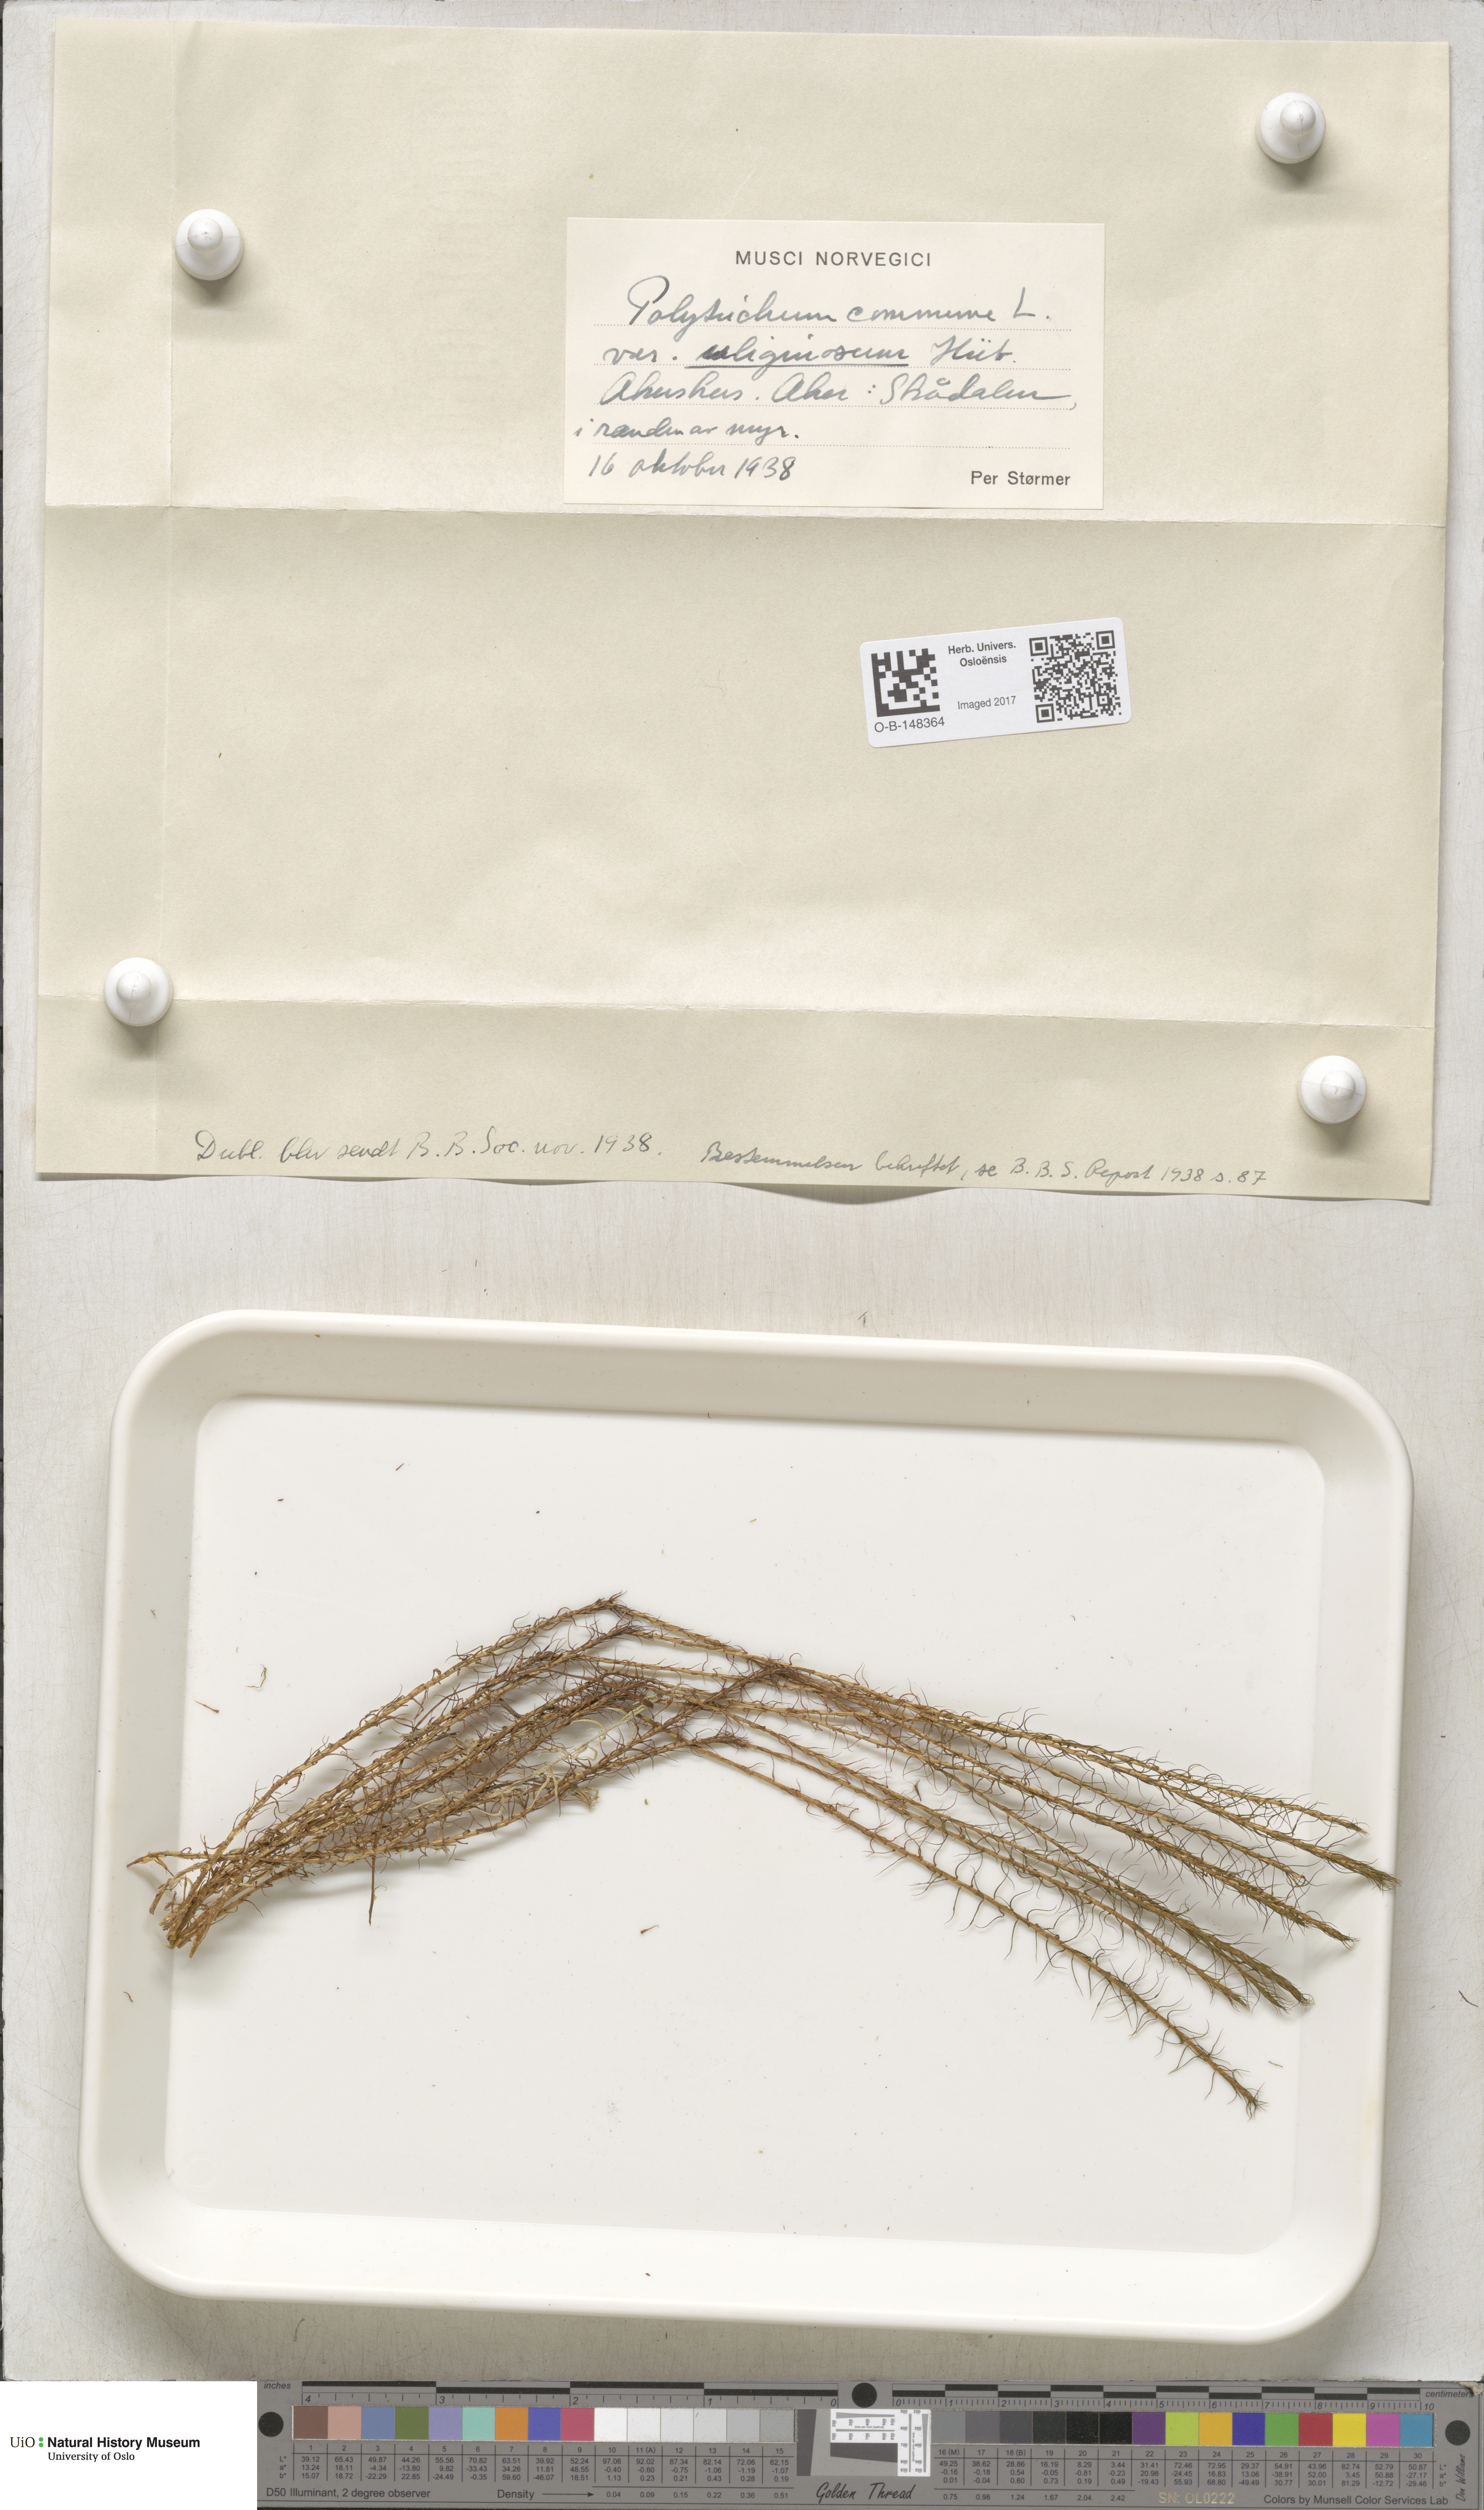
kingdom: Plantae
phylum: Bryophyta
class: Polytrichopsida
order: Polytrichales
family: Polytrichaceae
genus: Polytrichum
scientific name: Polytrichum commune
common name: Common haircap
